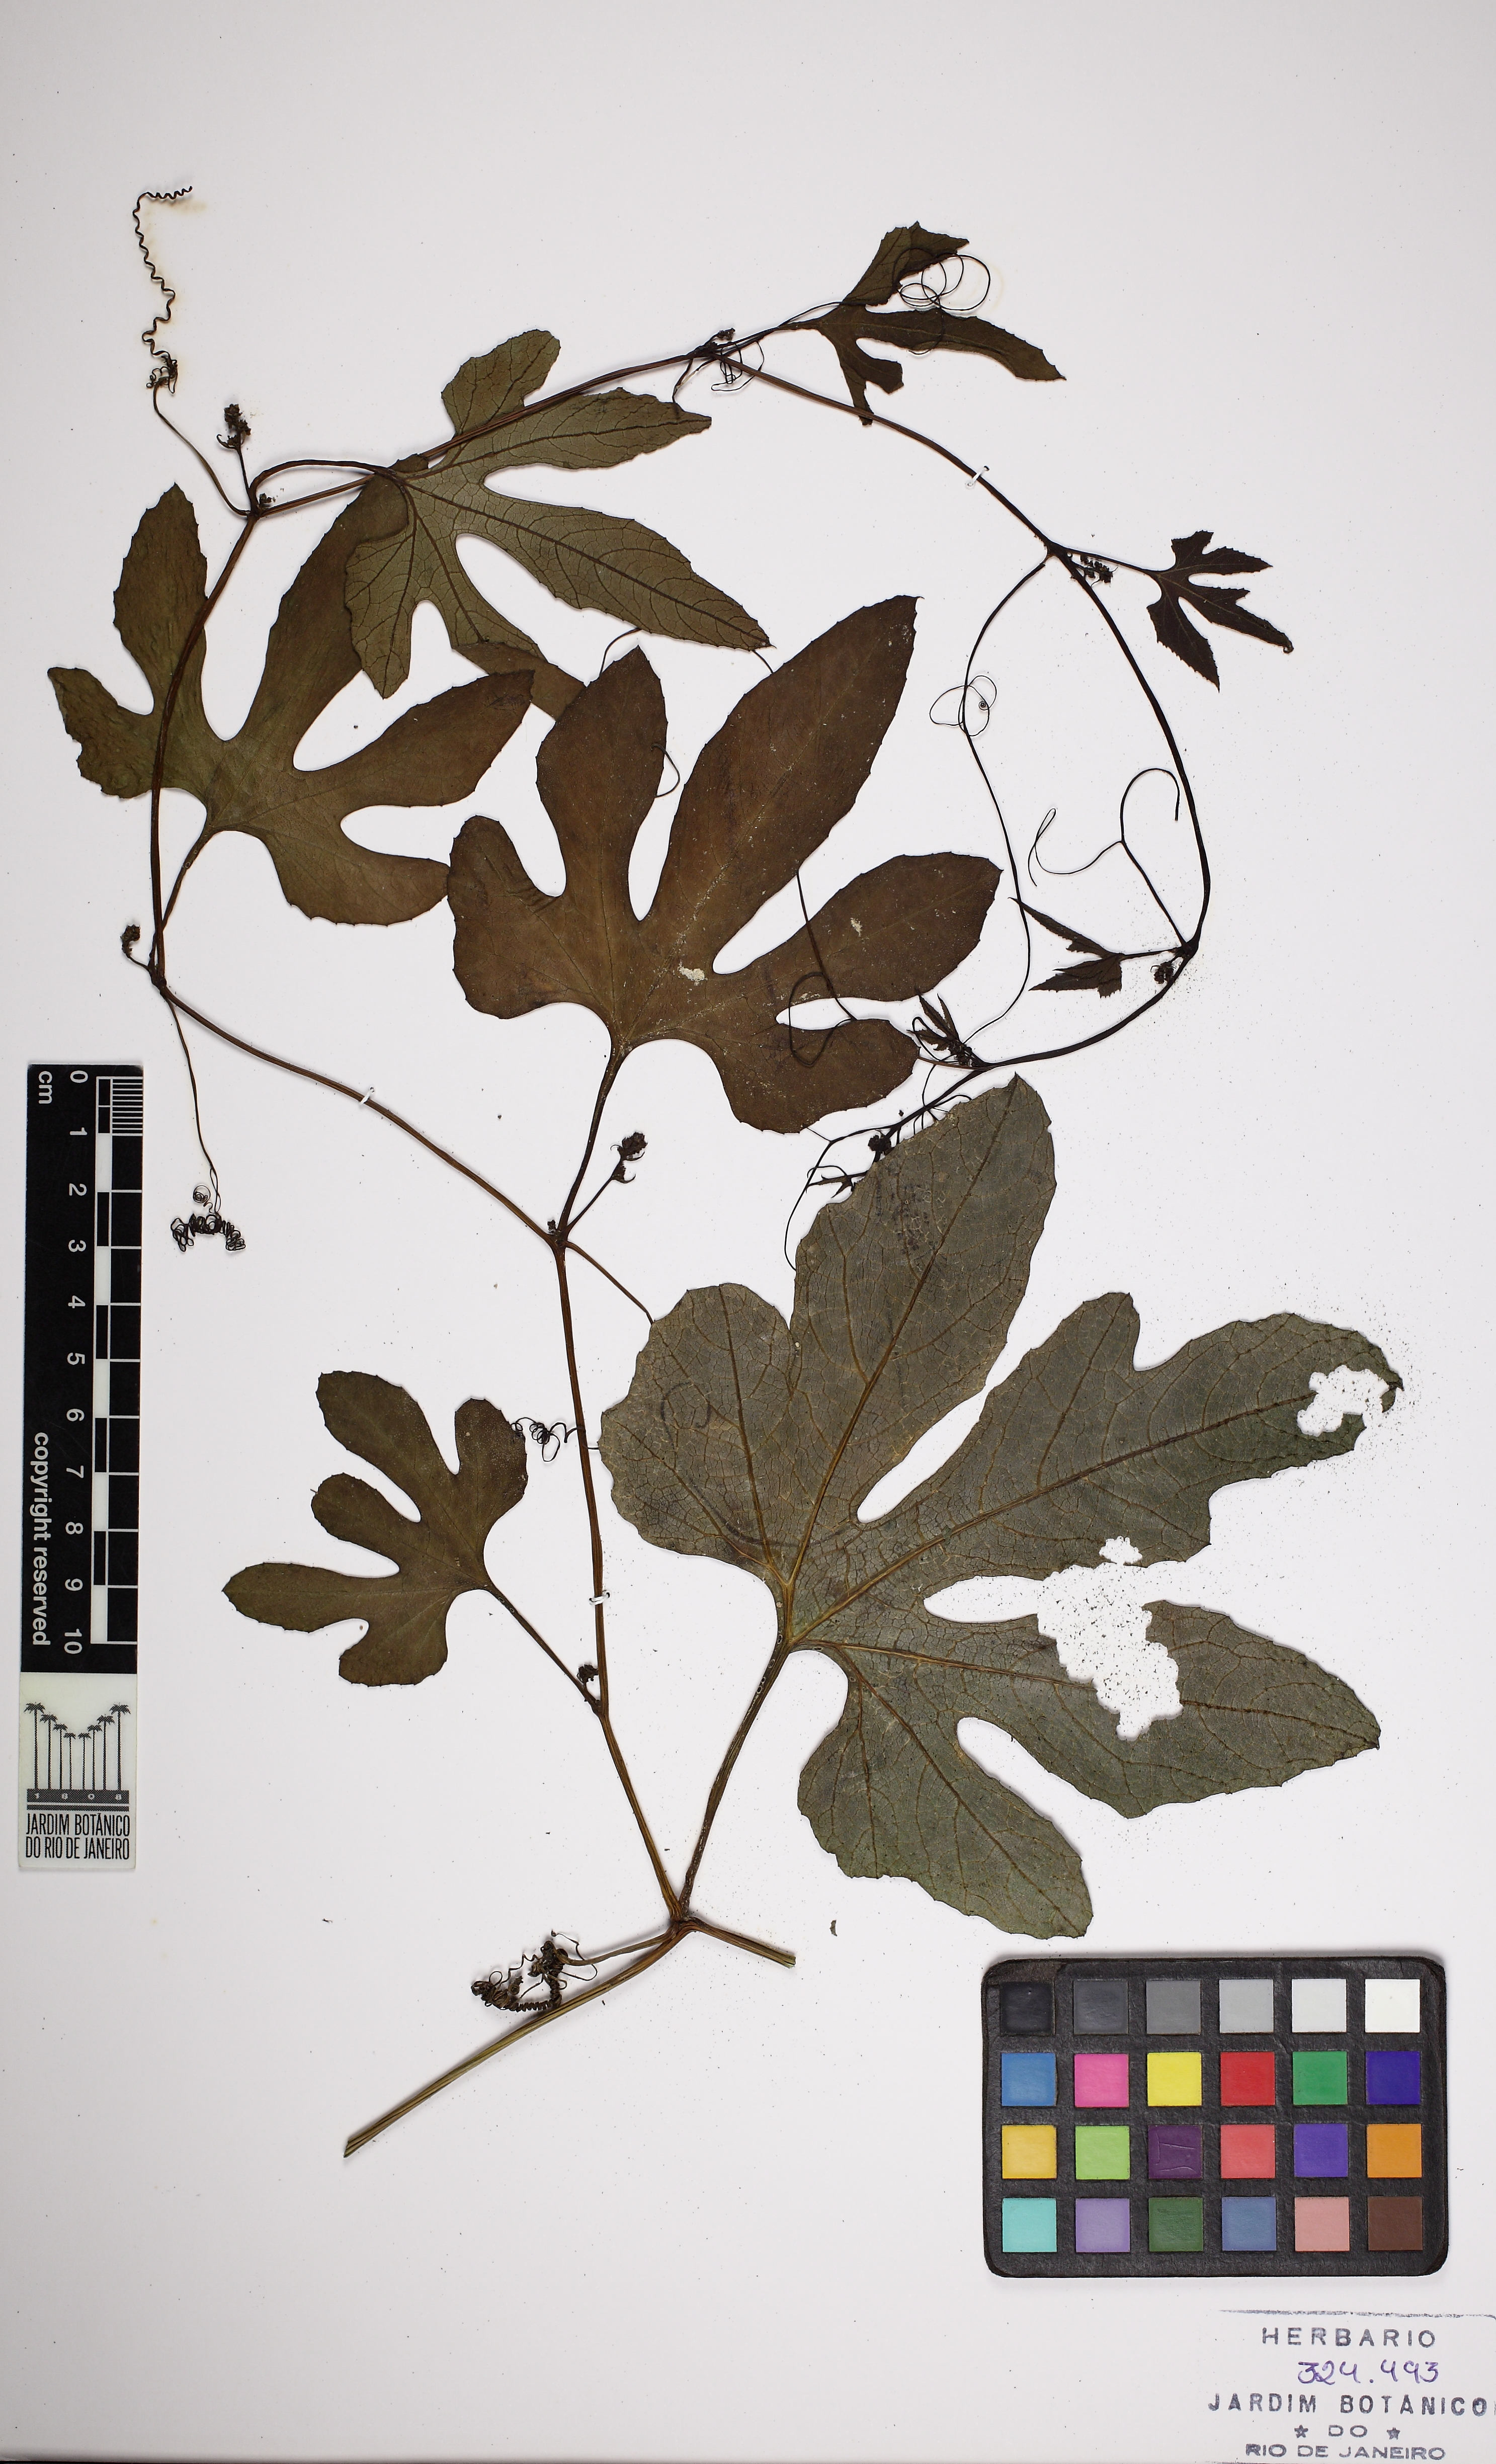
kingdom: Plantae
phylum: Tracheophyta
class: Magnoliopsida
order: Cucurbitales
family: Cucurbitaceae
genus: Cayaponia
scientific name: Cayaponia tayuya
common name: Tayuya
